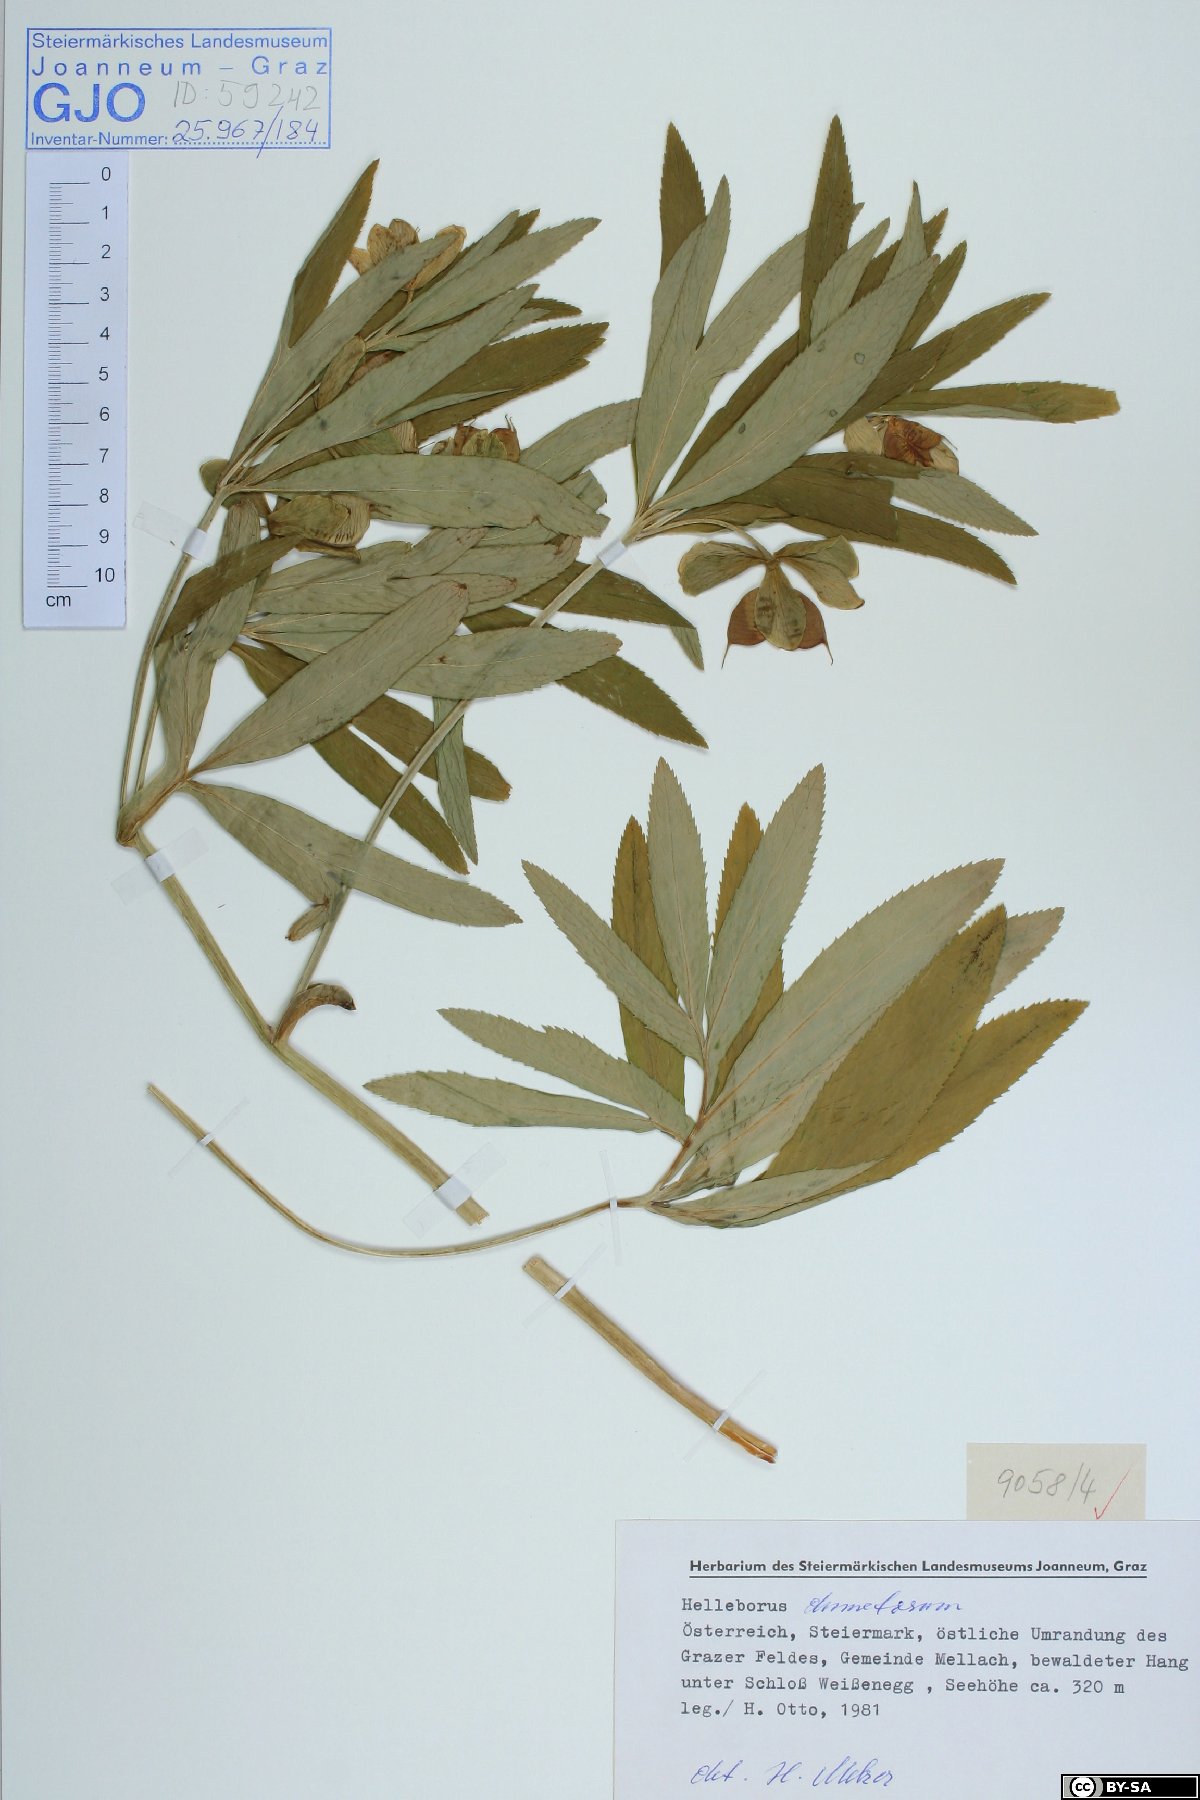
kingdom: Plantae
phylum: Tracheophyta
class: Magnoliopsida
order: Ranunculales
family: Ranunculaceae
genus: Helleborus
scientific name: Helleborus dumetorum
